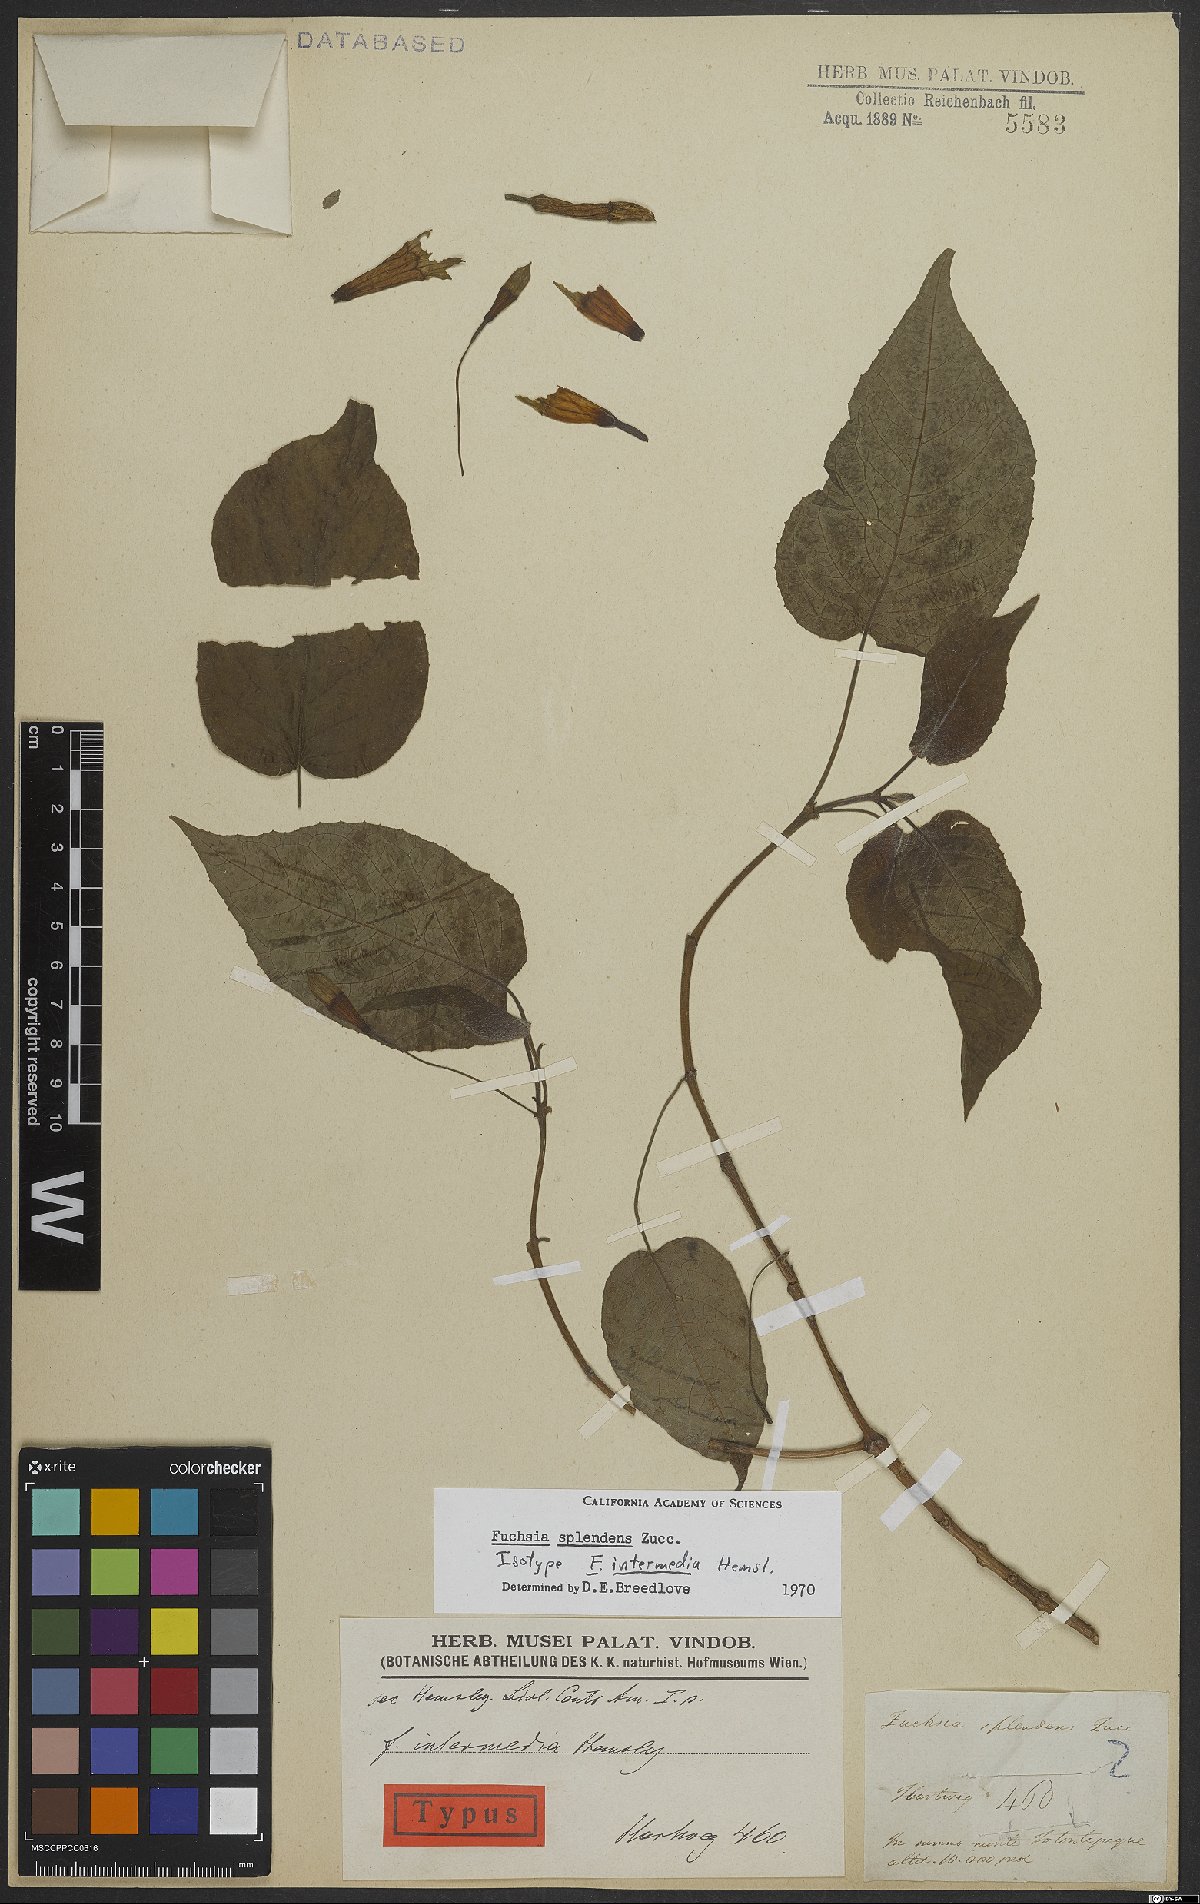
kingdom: Plantae
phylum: Tracheophyta
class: Magnoliopsida
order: Myrtales
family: Onagraceae
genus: Fuchsia
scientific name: Fuchsia splendens
